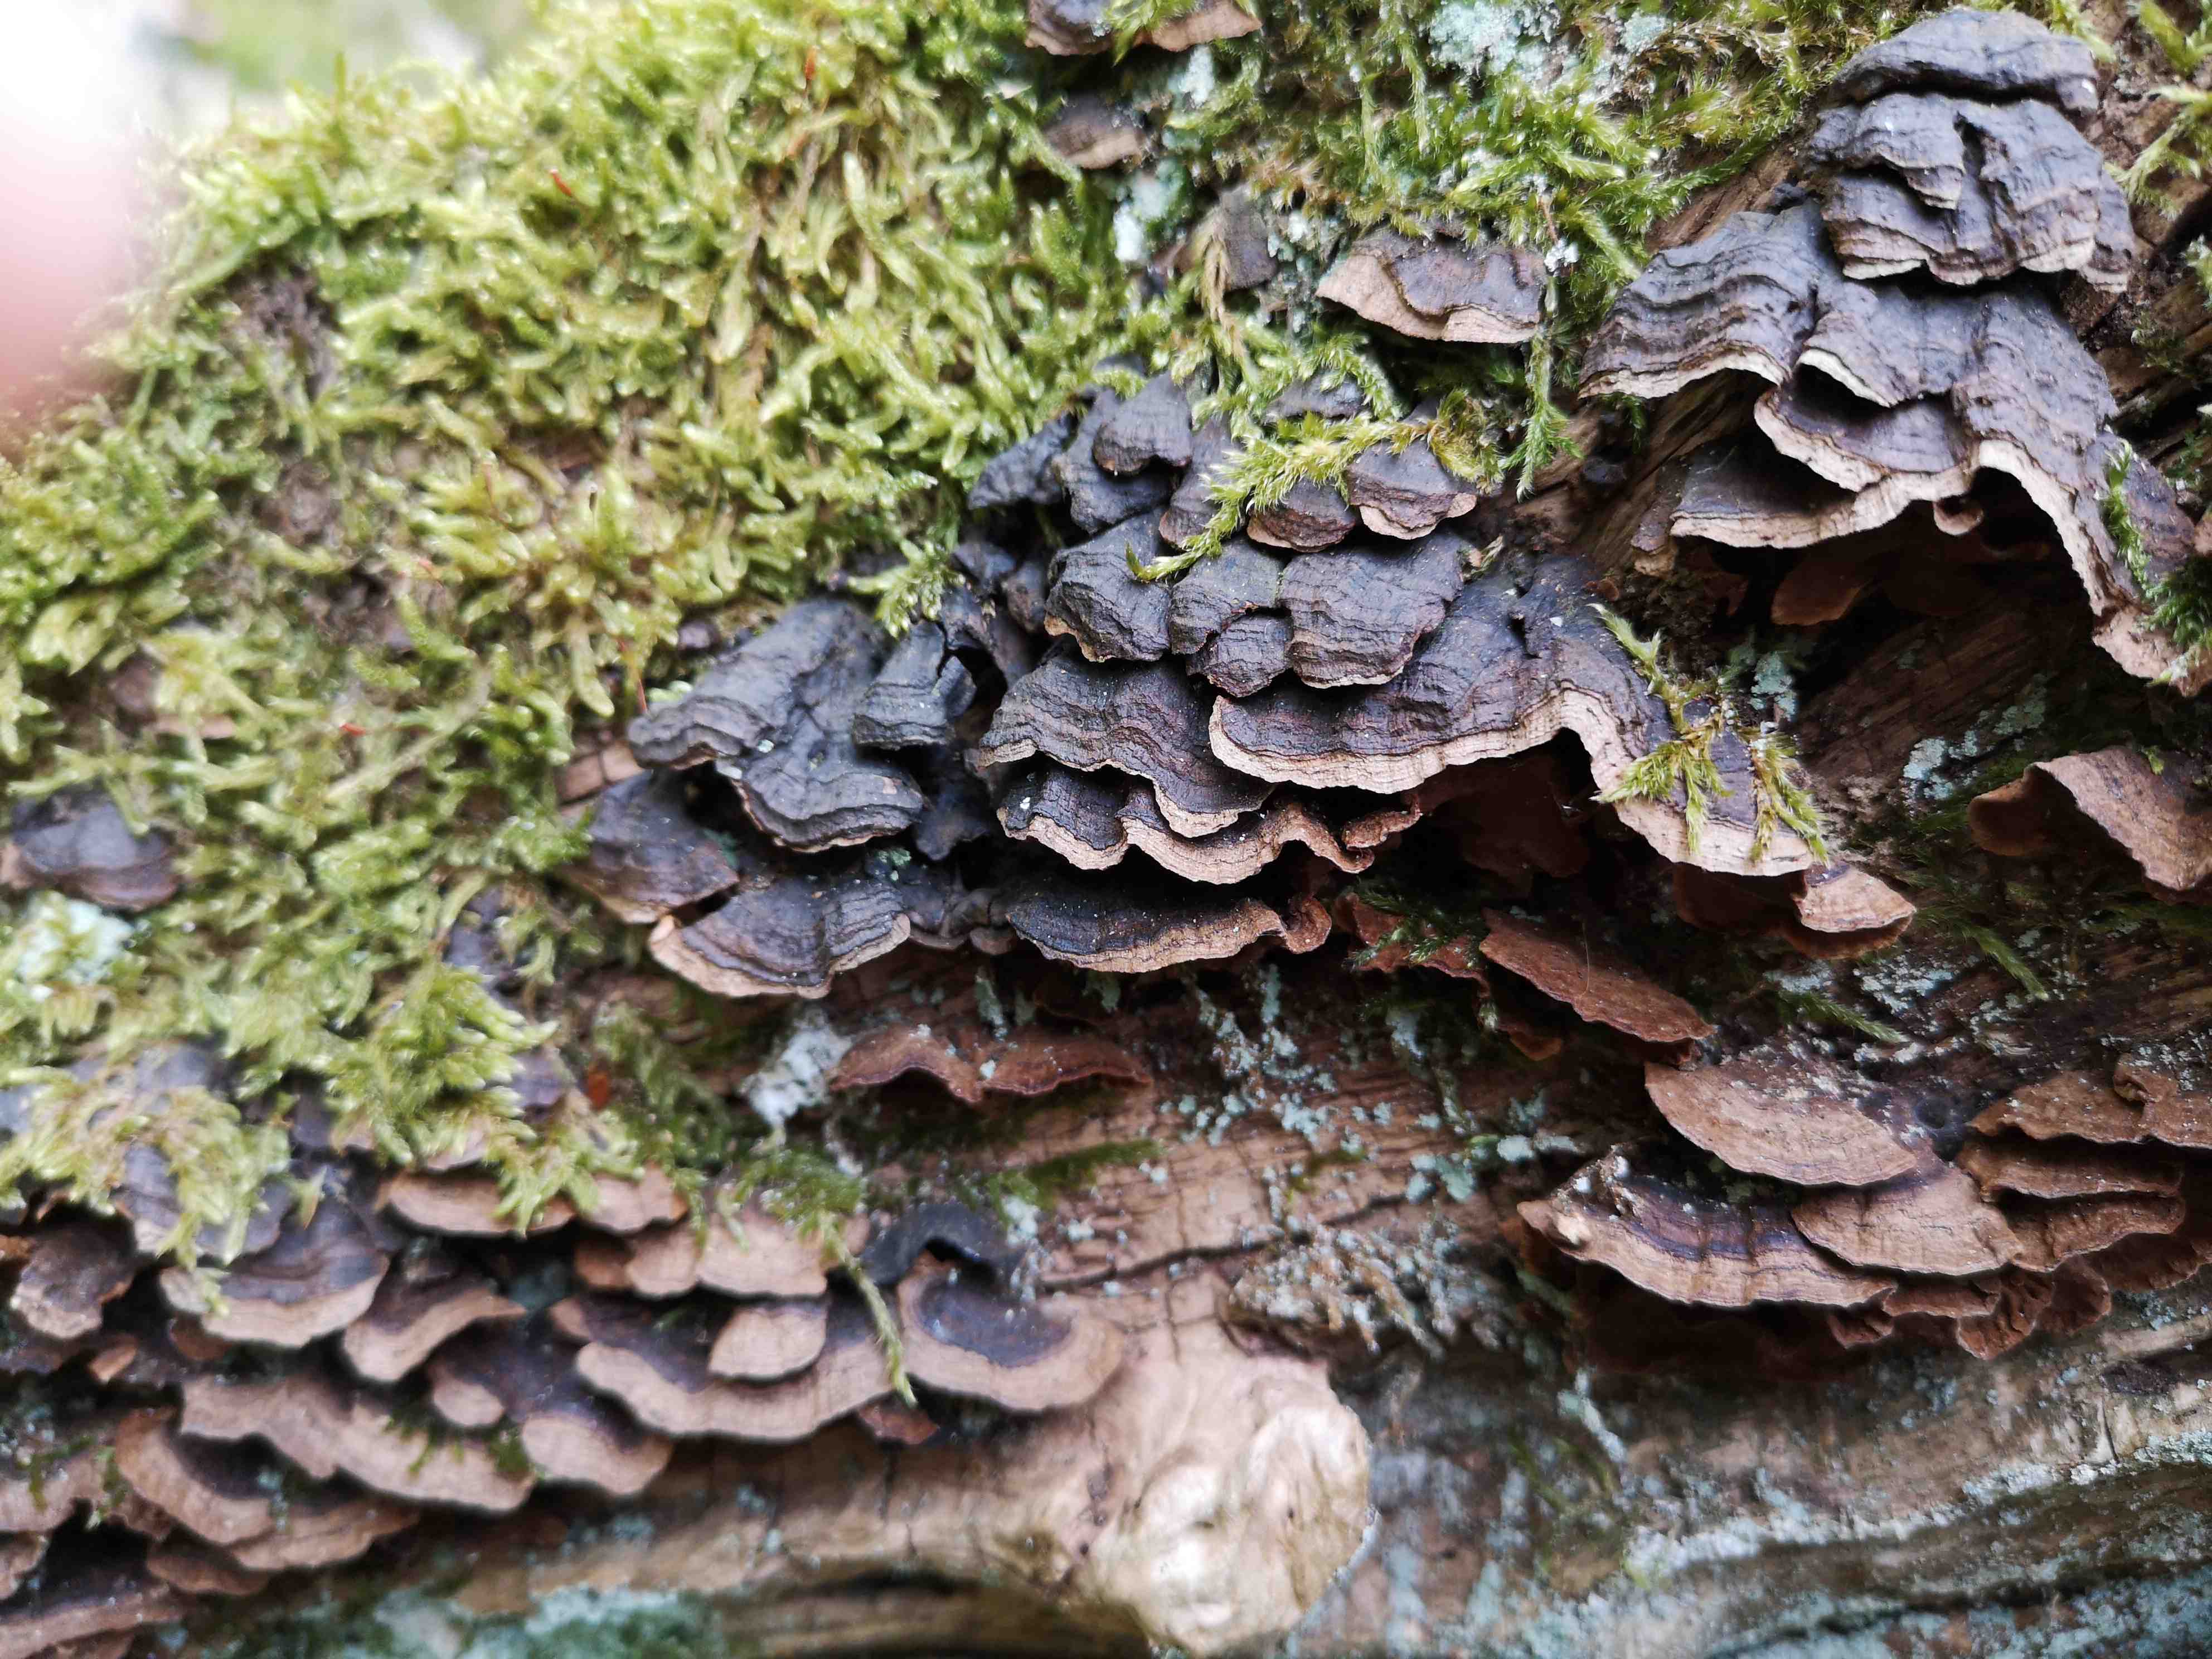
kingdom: Fungi
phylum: Basidiomycota
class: Agaricomycetes
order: Hymenochaetales
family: Hymenochaetaceae
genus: Hymenochaete
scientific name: Hymenochaete rubiginosa
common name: stiv ruslædersvamp
